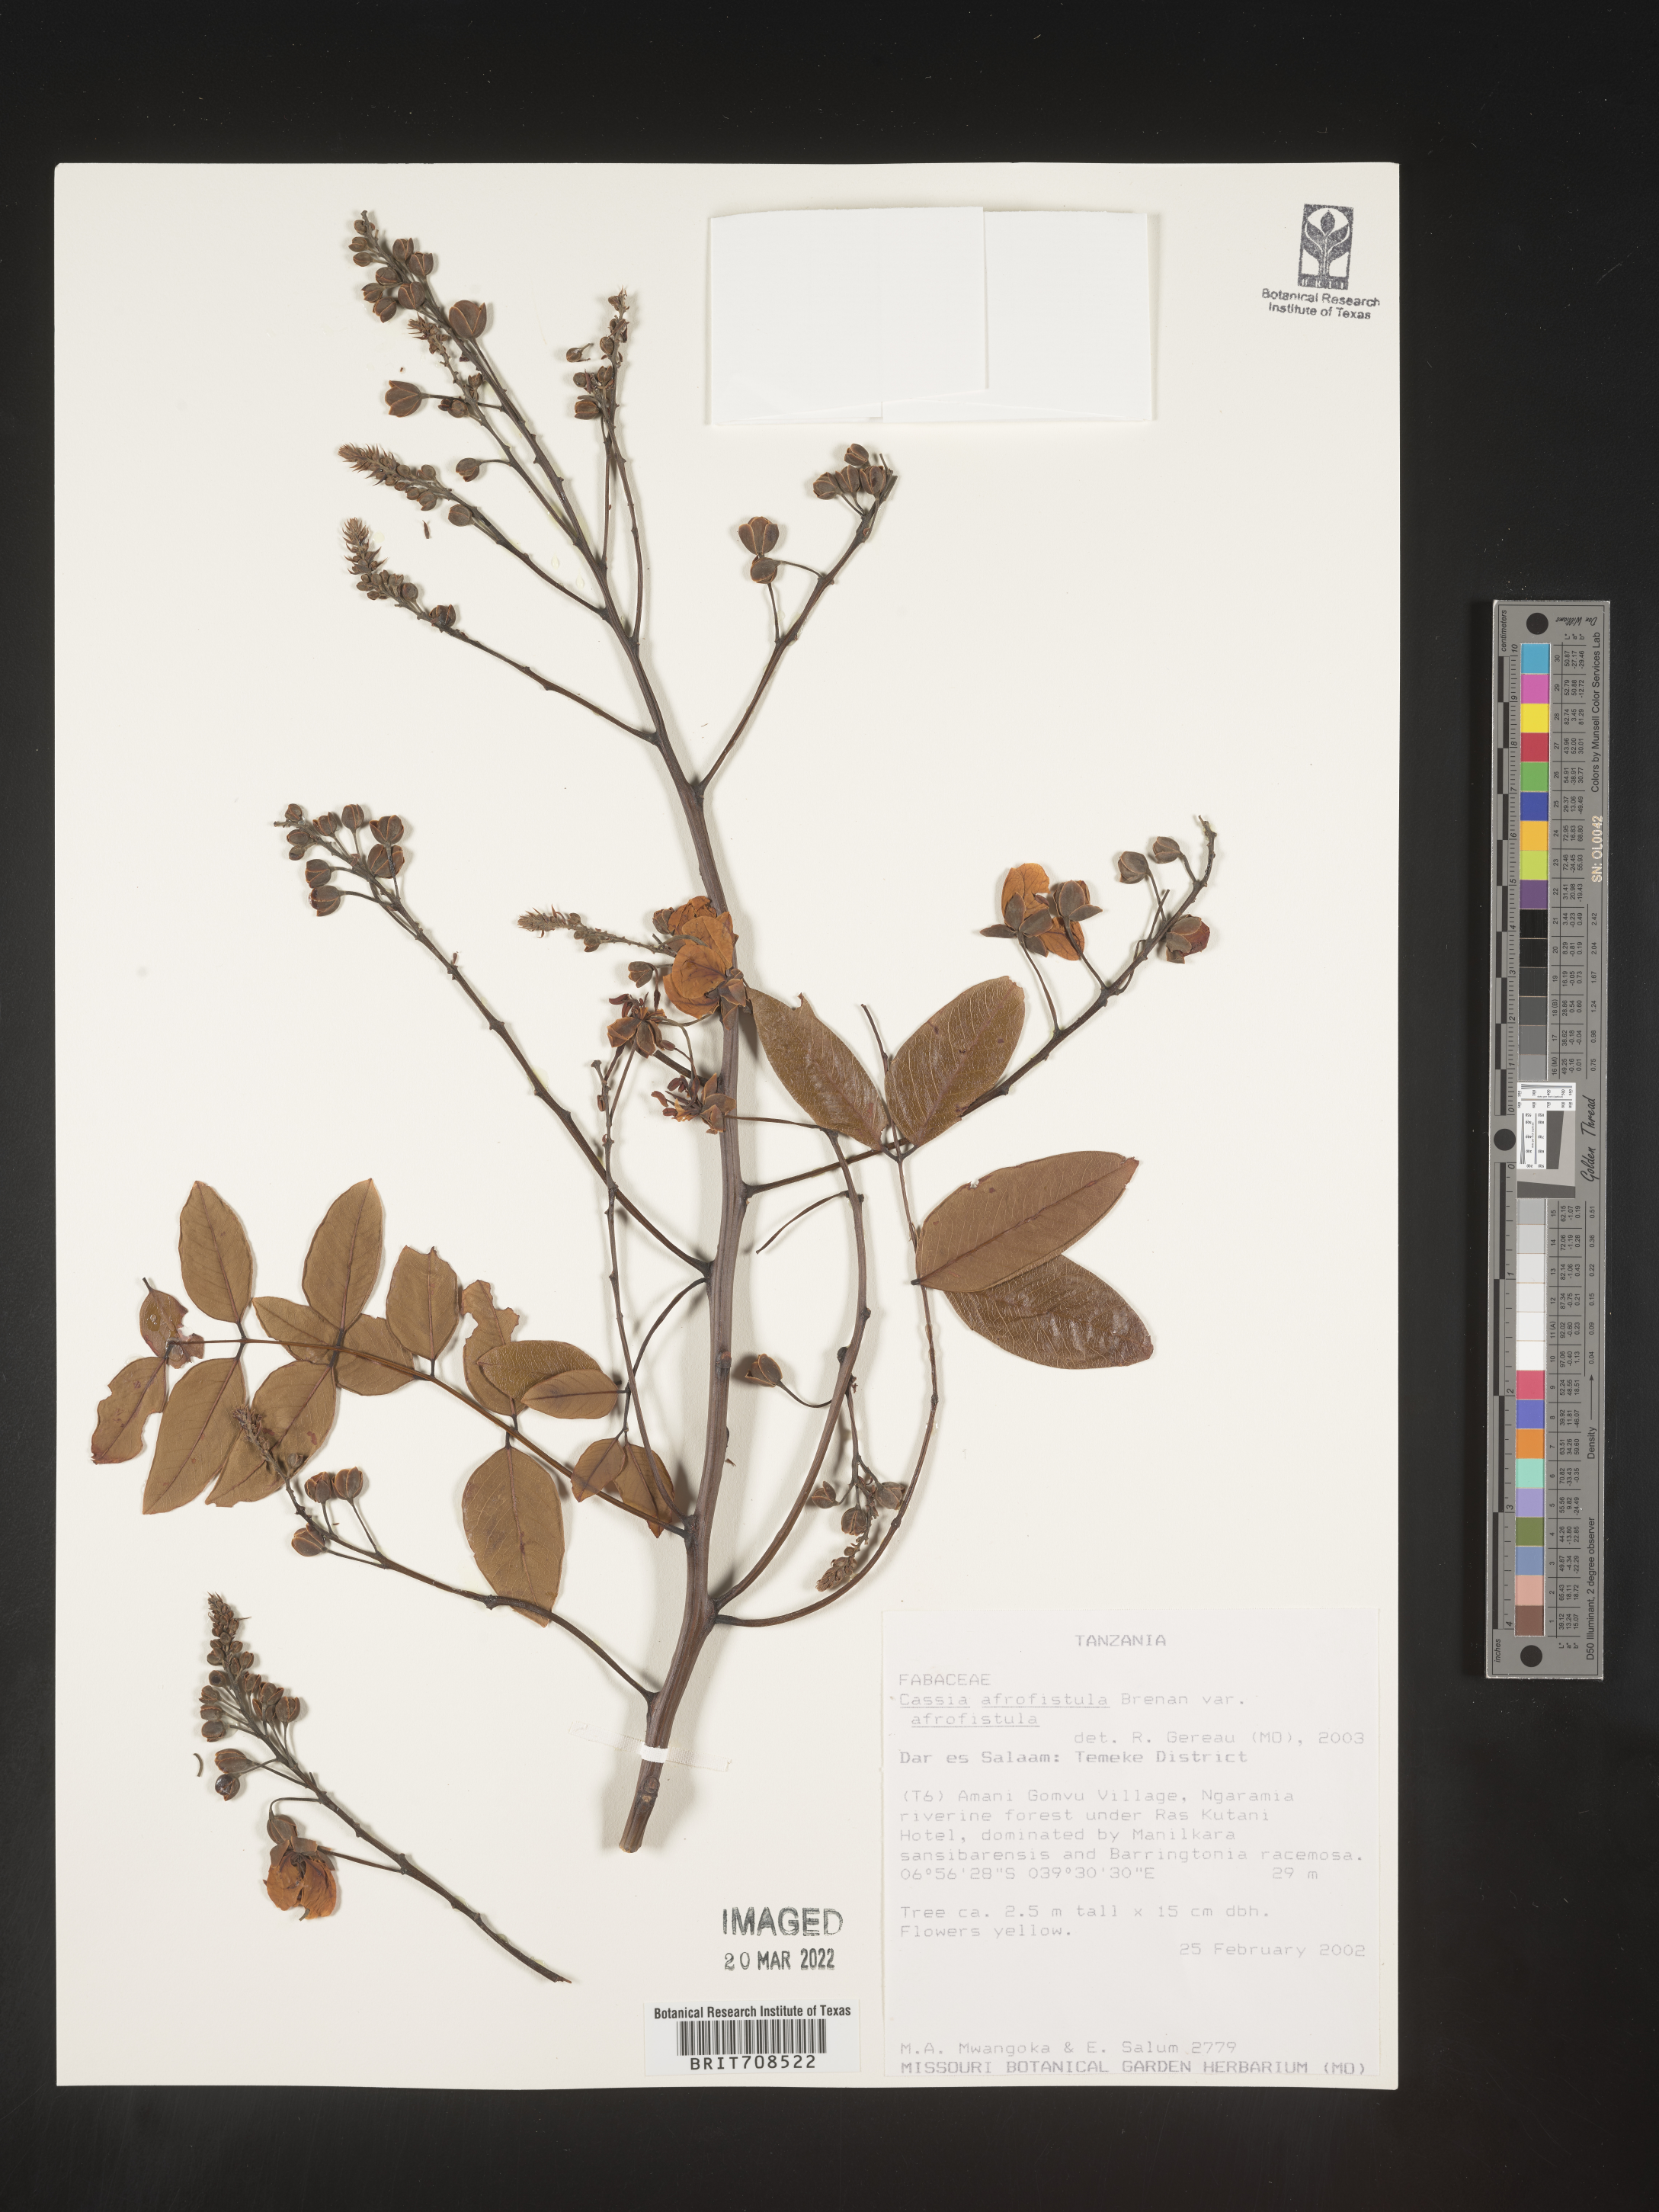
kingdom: Plantae
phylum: Tracheophyta
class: Magnoliopsida
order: Fabales
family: Fabaceae
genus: Cassia
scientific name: Cassia
